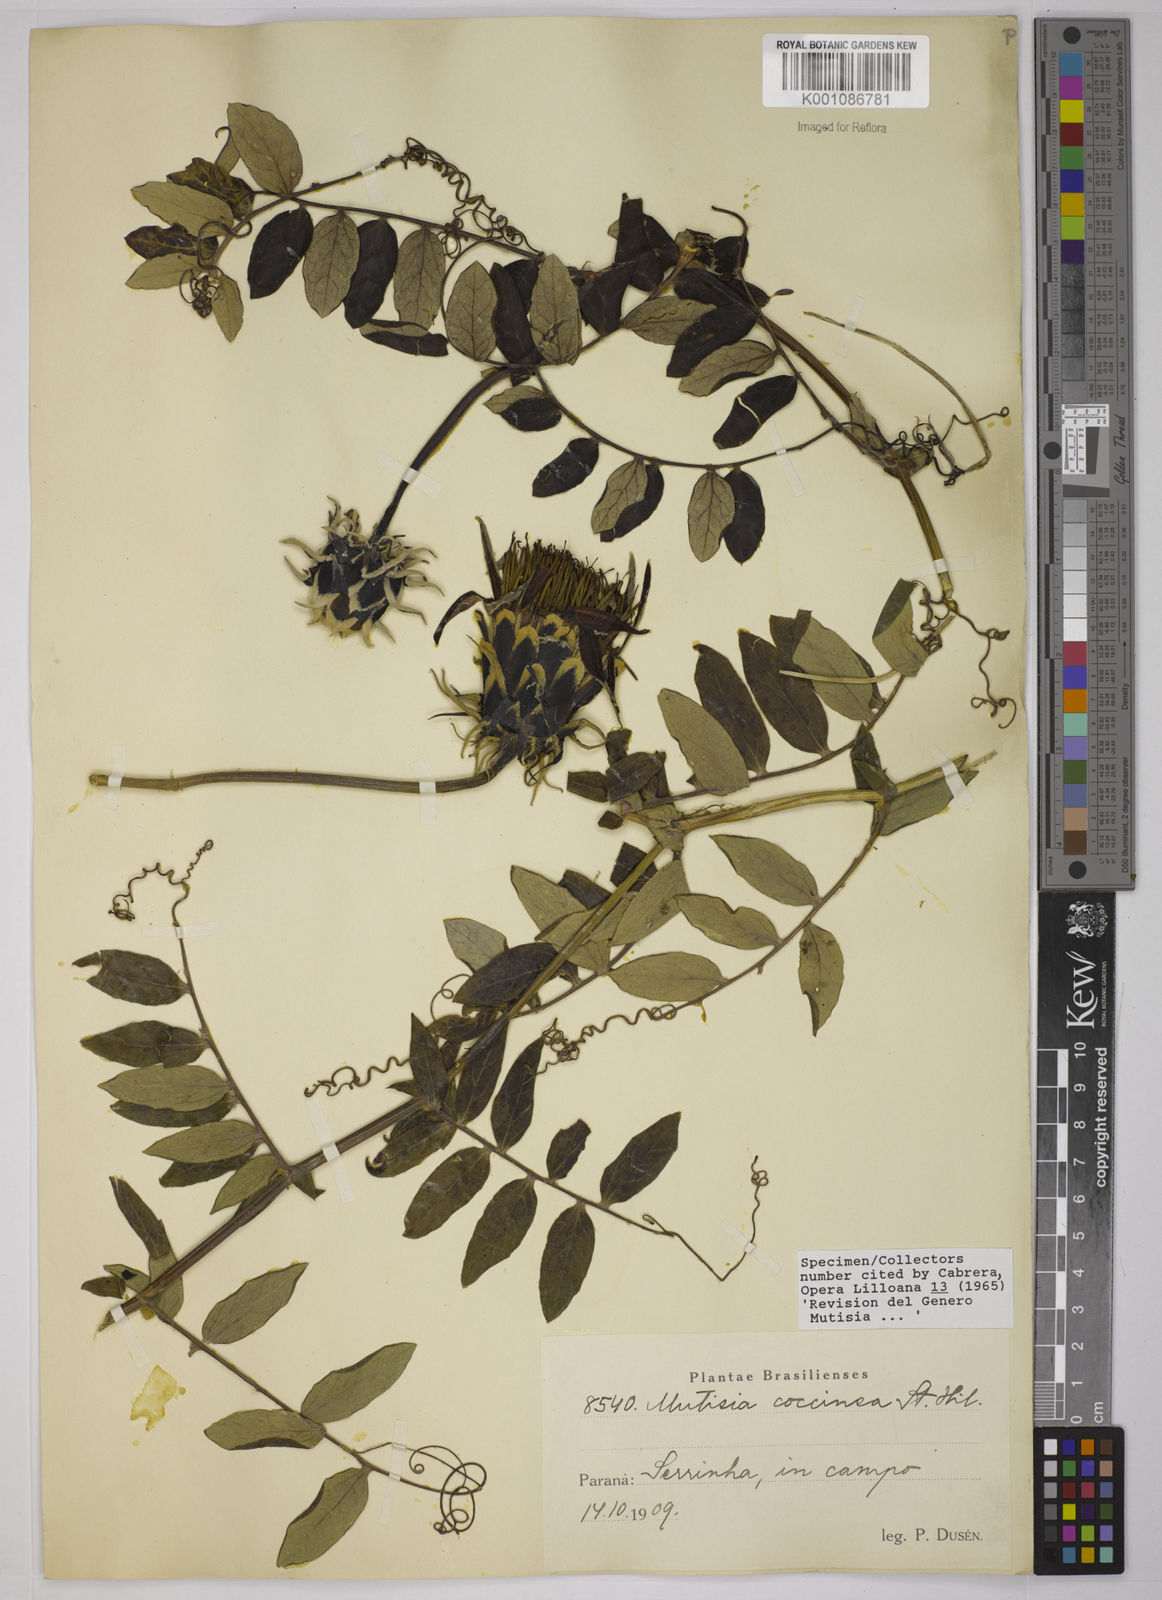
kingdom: Plantae
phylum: Tracheophyta
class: Magnoliopsida
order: Asterales
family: Asteraceae
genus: Mutisia
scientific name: Mutisia coccinea
